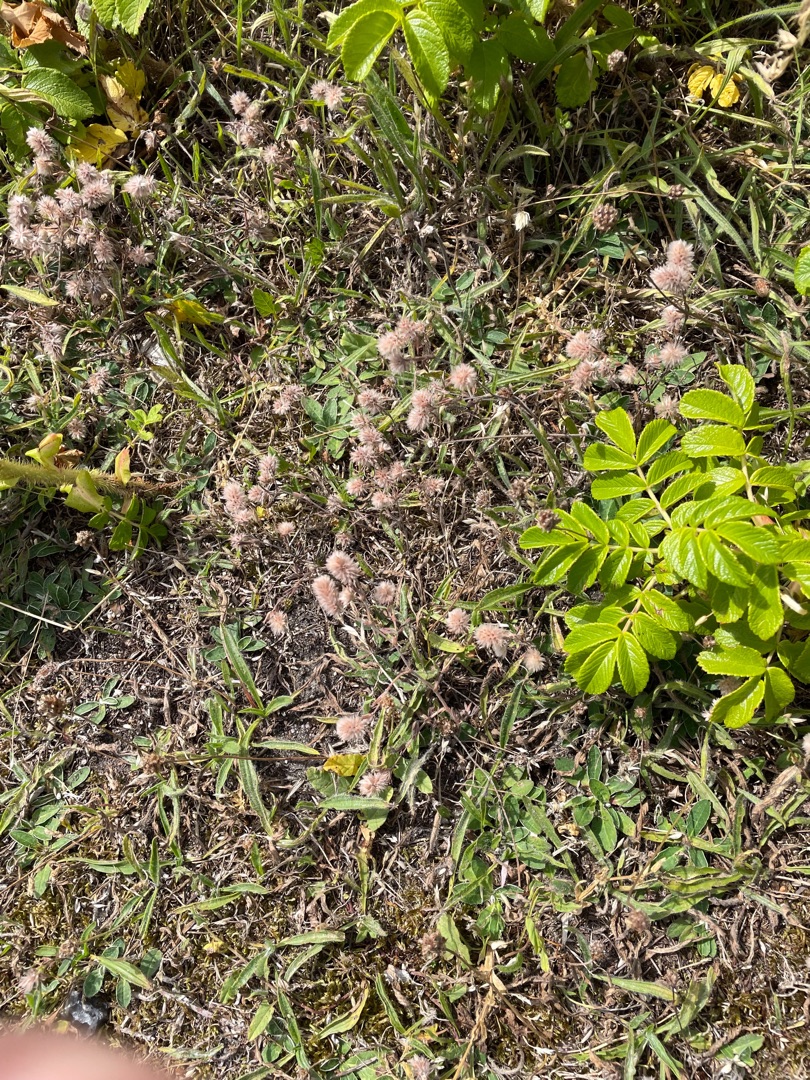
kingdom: Plantae
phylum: Tracheophyta
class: Magnoliopsida
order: Fabales
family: Fabaceae
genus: Trifolium
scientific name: Trifolium arvense
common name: Hare-kløver
